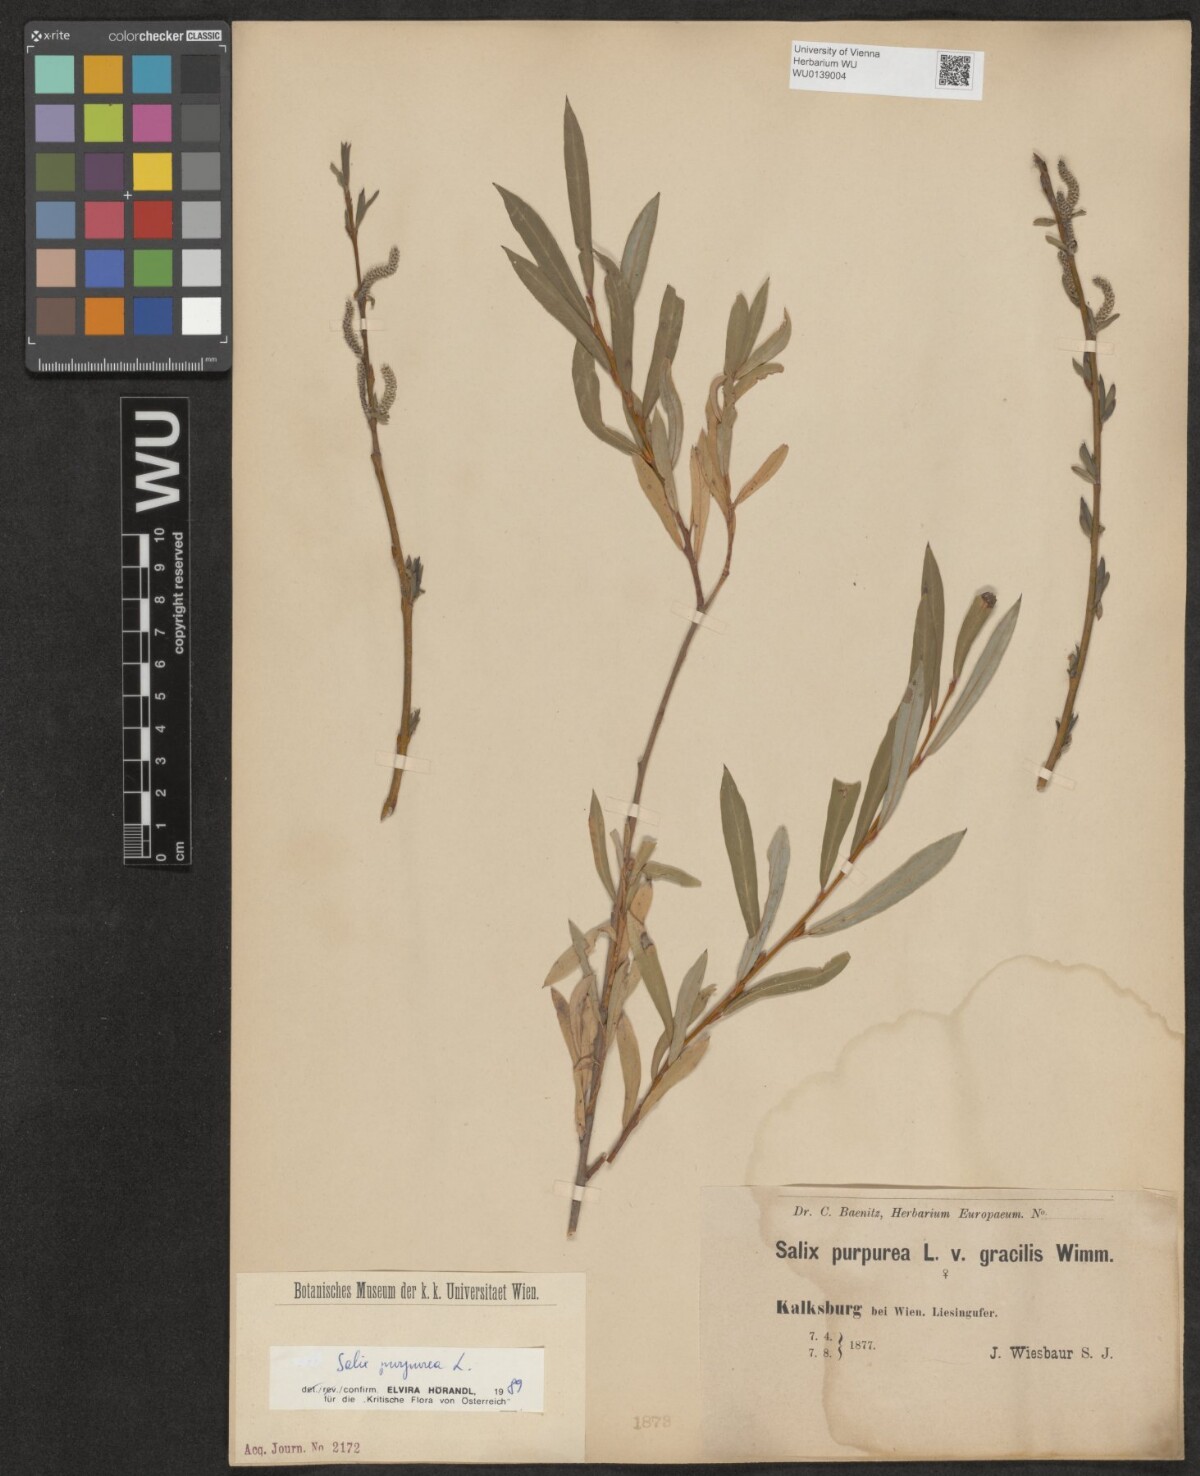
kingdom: Plantae
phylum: Tracheophyta
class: Magnoliopsida
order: Malpighiales
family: Salicaceae
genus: Salix
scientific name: Salix purpurea
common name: Purple willow
